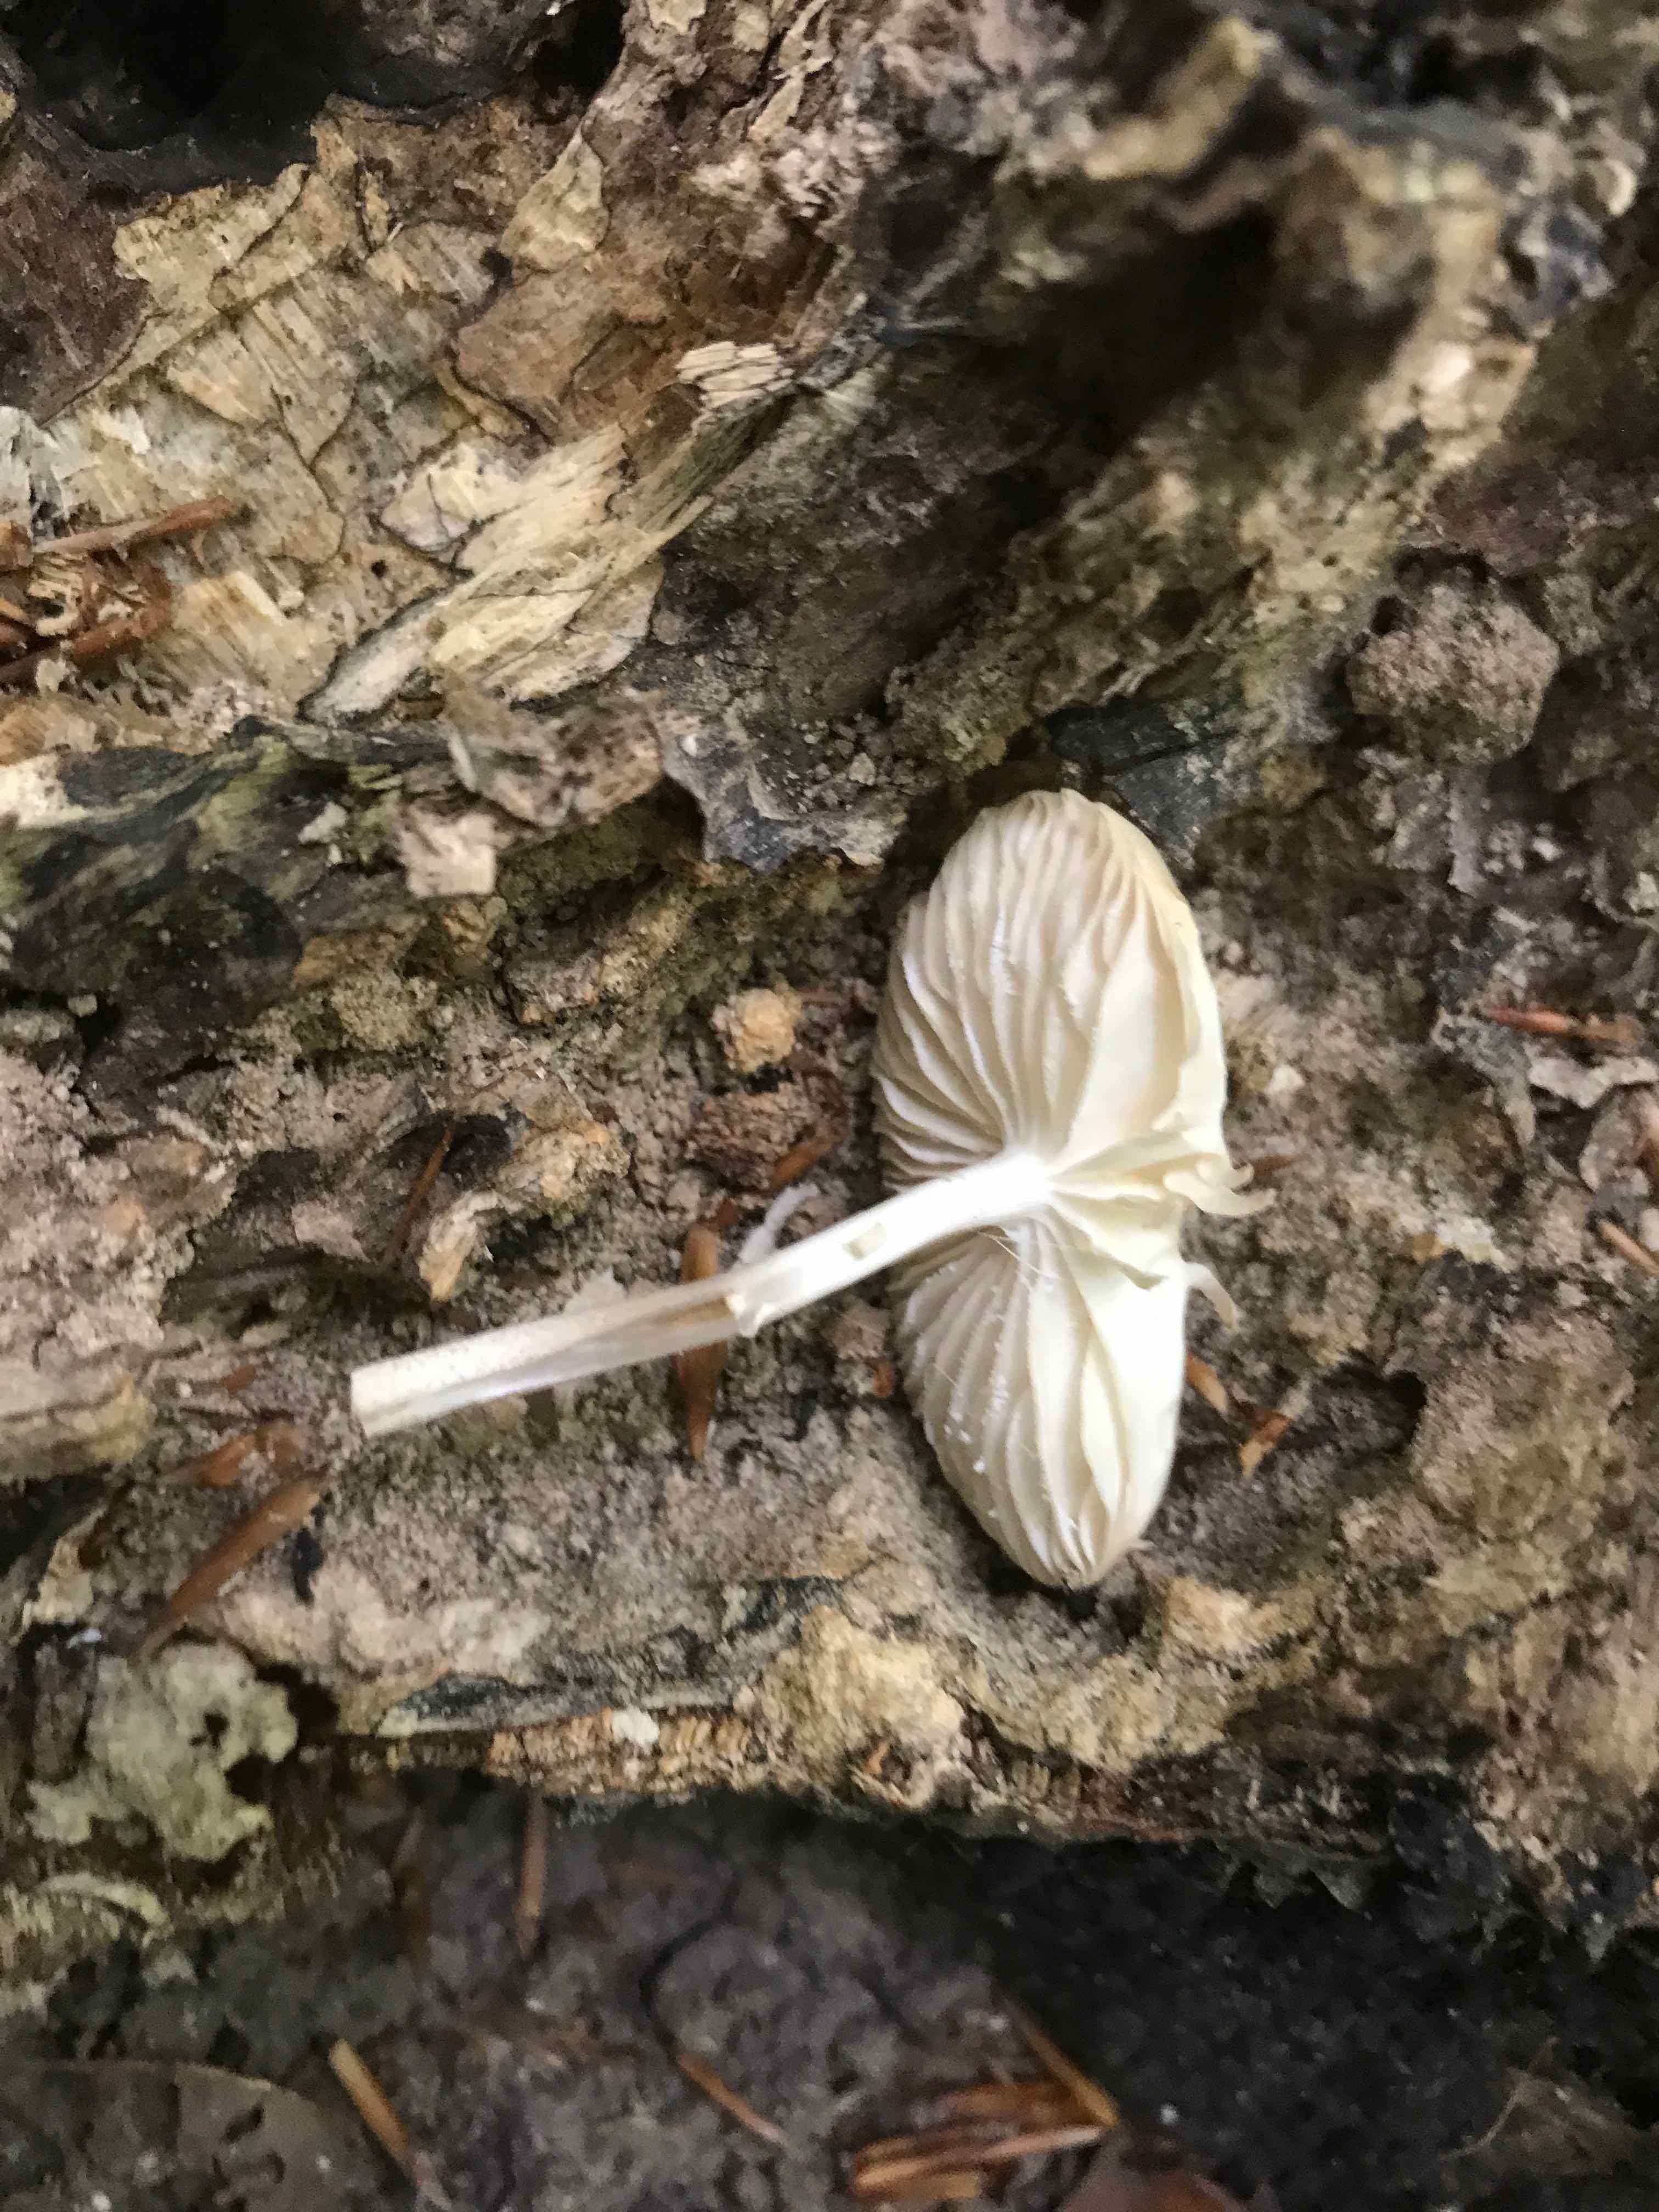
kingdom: Fungi
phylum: Basidiomycota
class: Agaricomycetes
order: Agaricales
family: Mycenaceae
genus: Mycena
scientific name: Mycena galericulata
